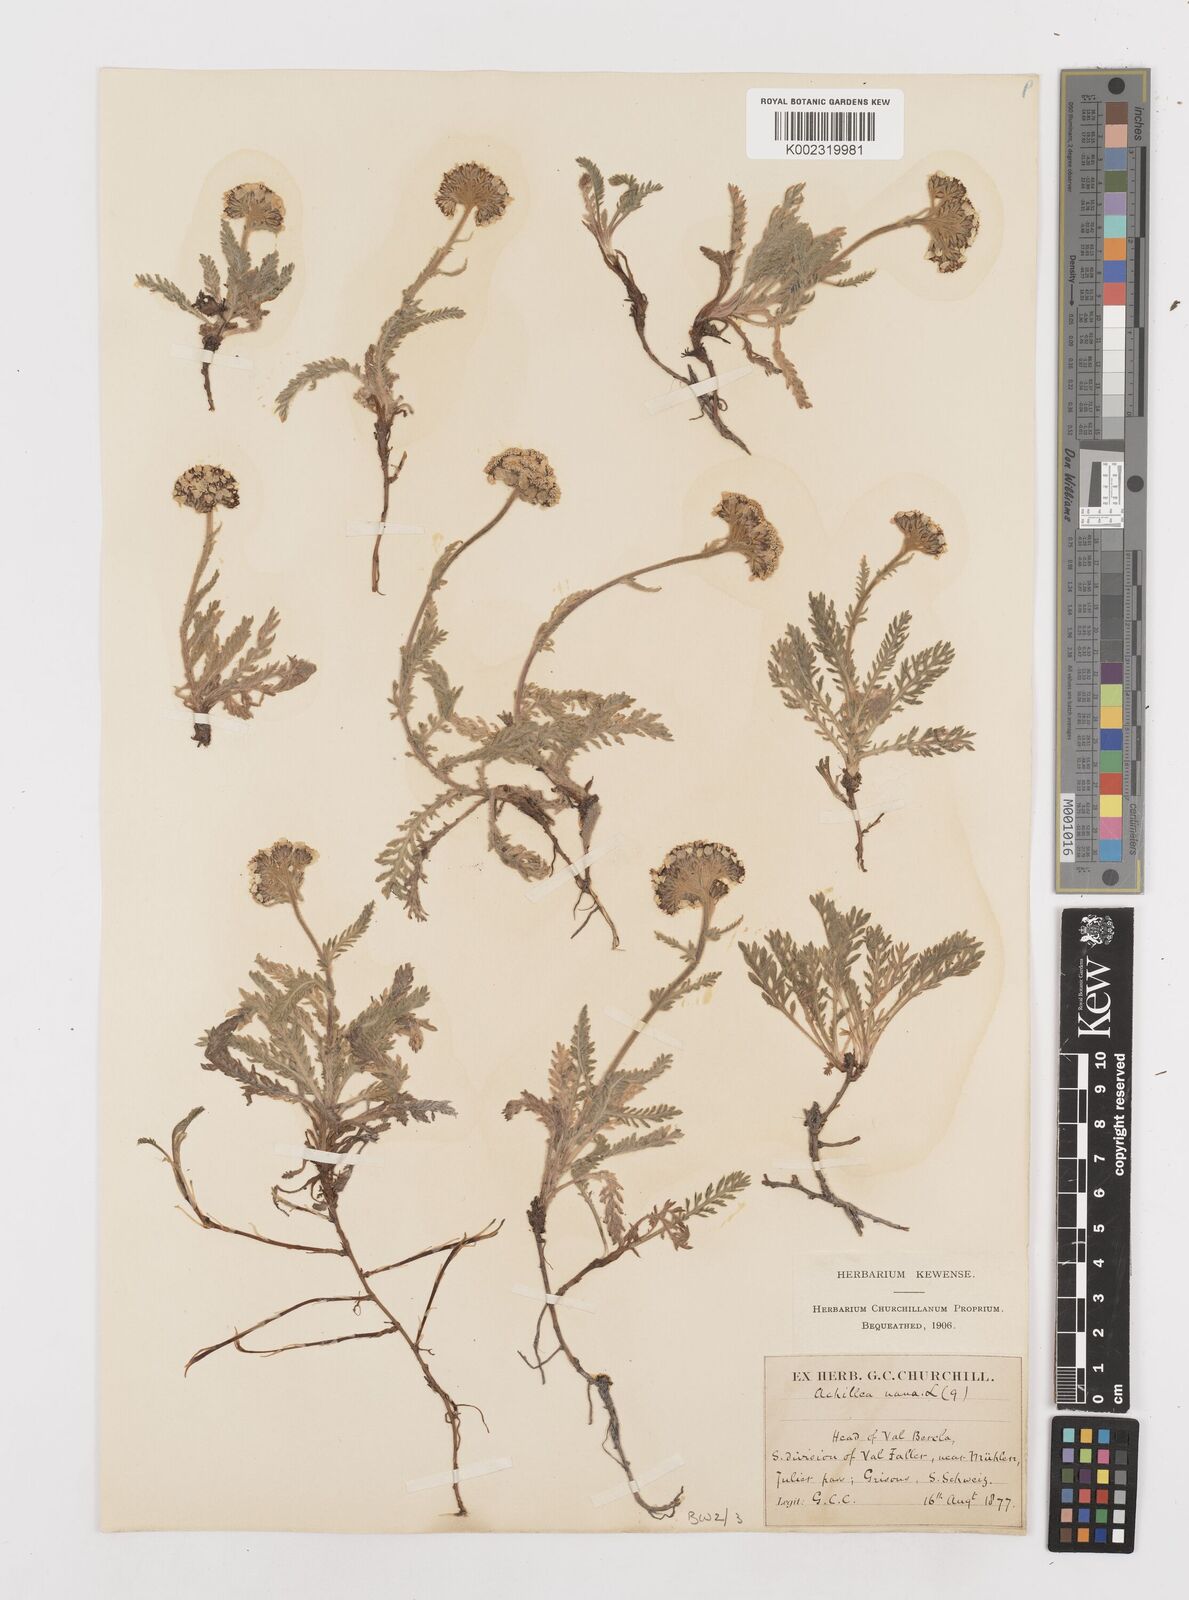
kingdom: Plantae
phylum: Tracheophyta
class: Magnoliopsida
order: Asterales
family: Asteraceae
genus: Achillea
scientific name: Achillea nana
